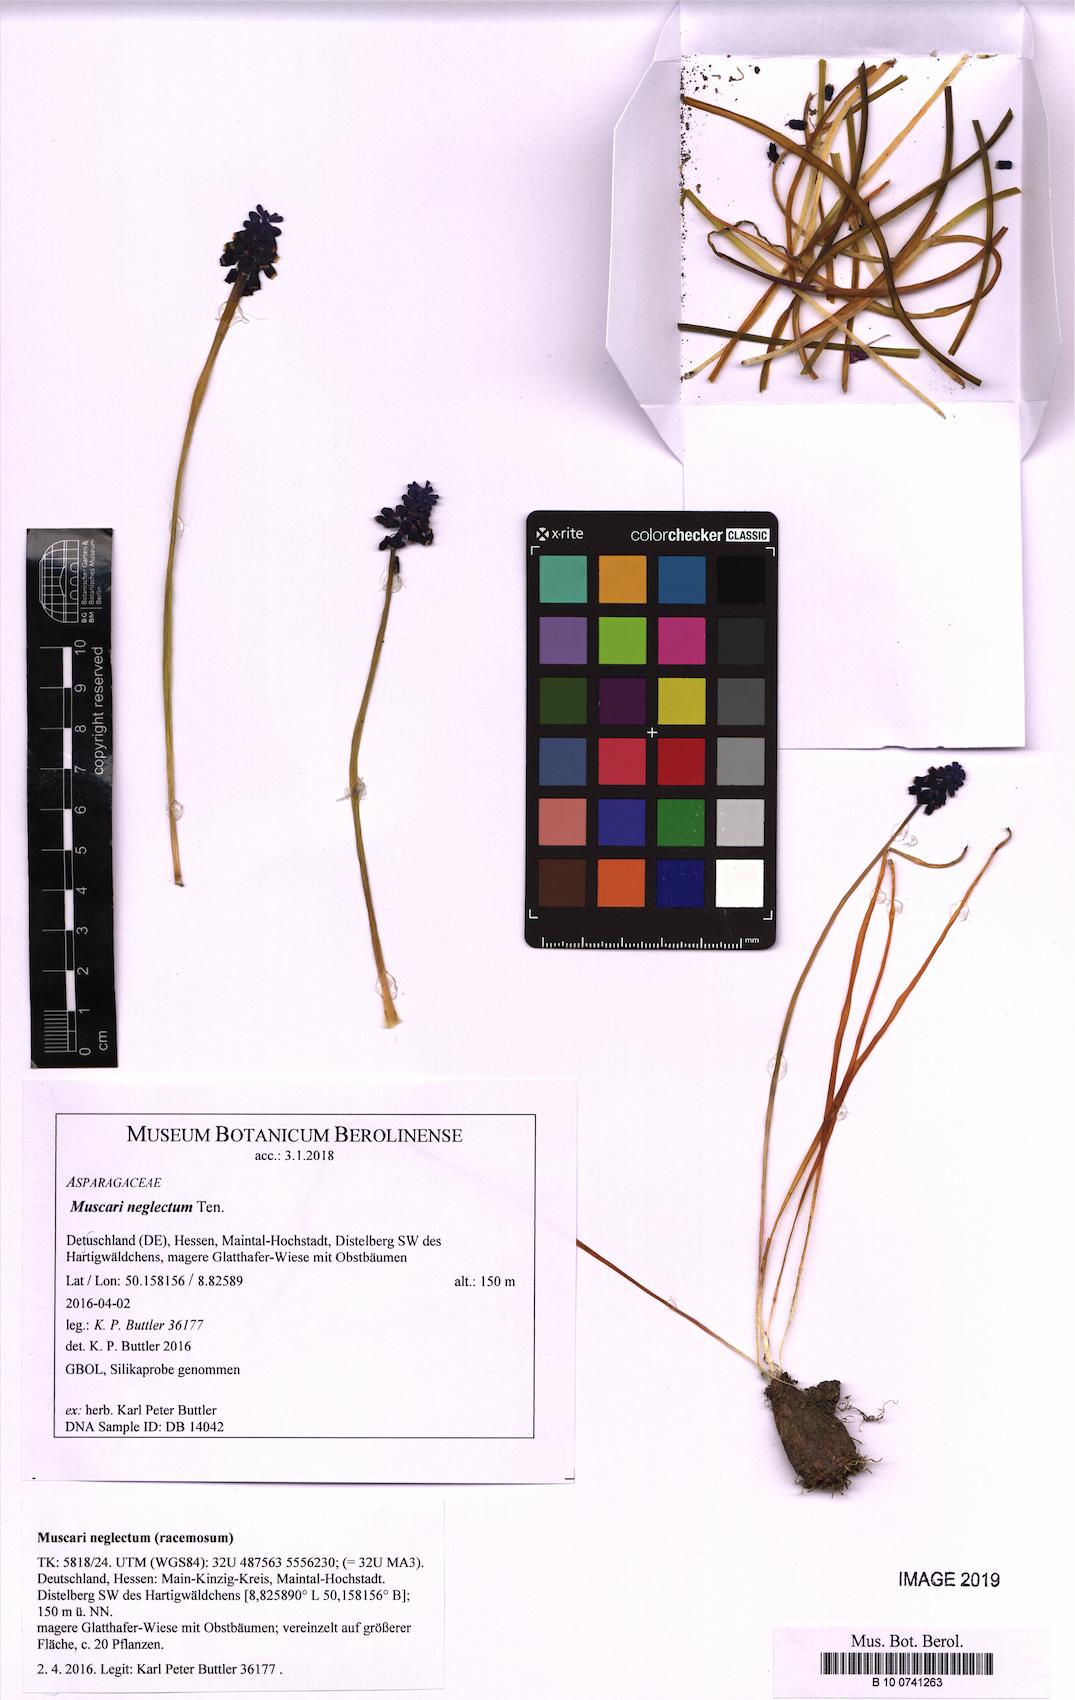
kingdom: Plantae
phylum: Tracheophyta
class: Liliopsida
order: Asparagales
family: Asparagaceae
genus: Muscari
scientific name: Muscari neglectum
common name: Grape-hyacinth
